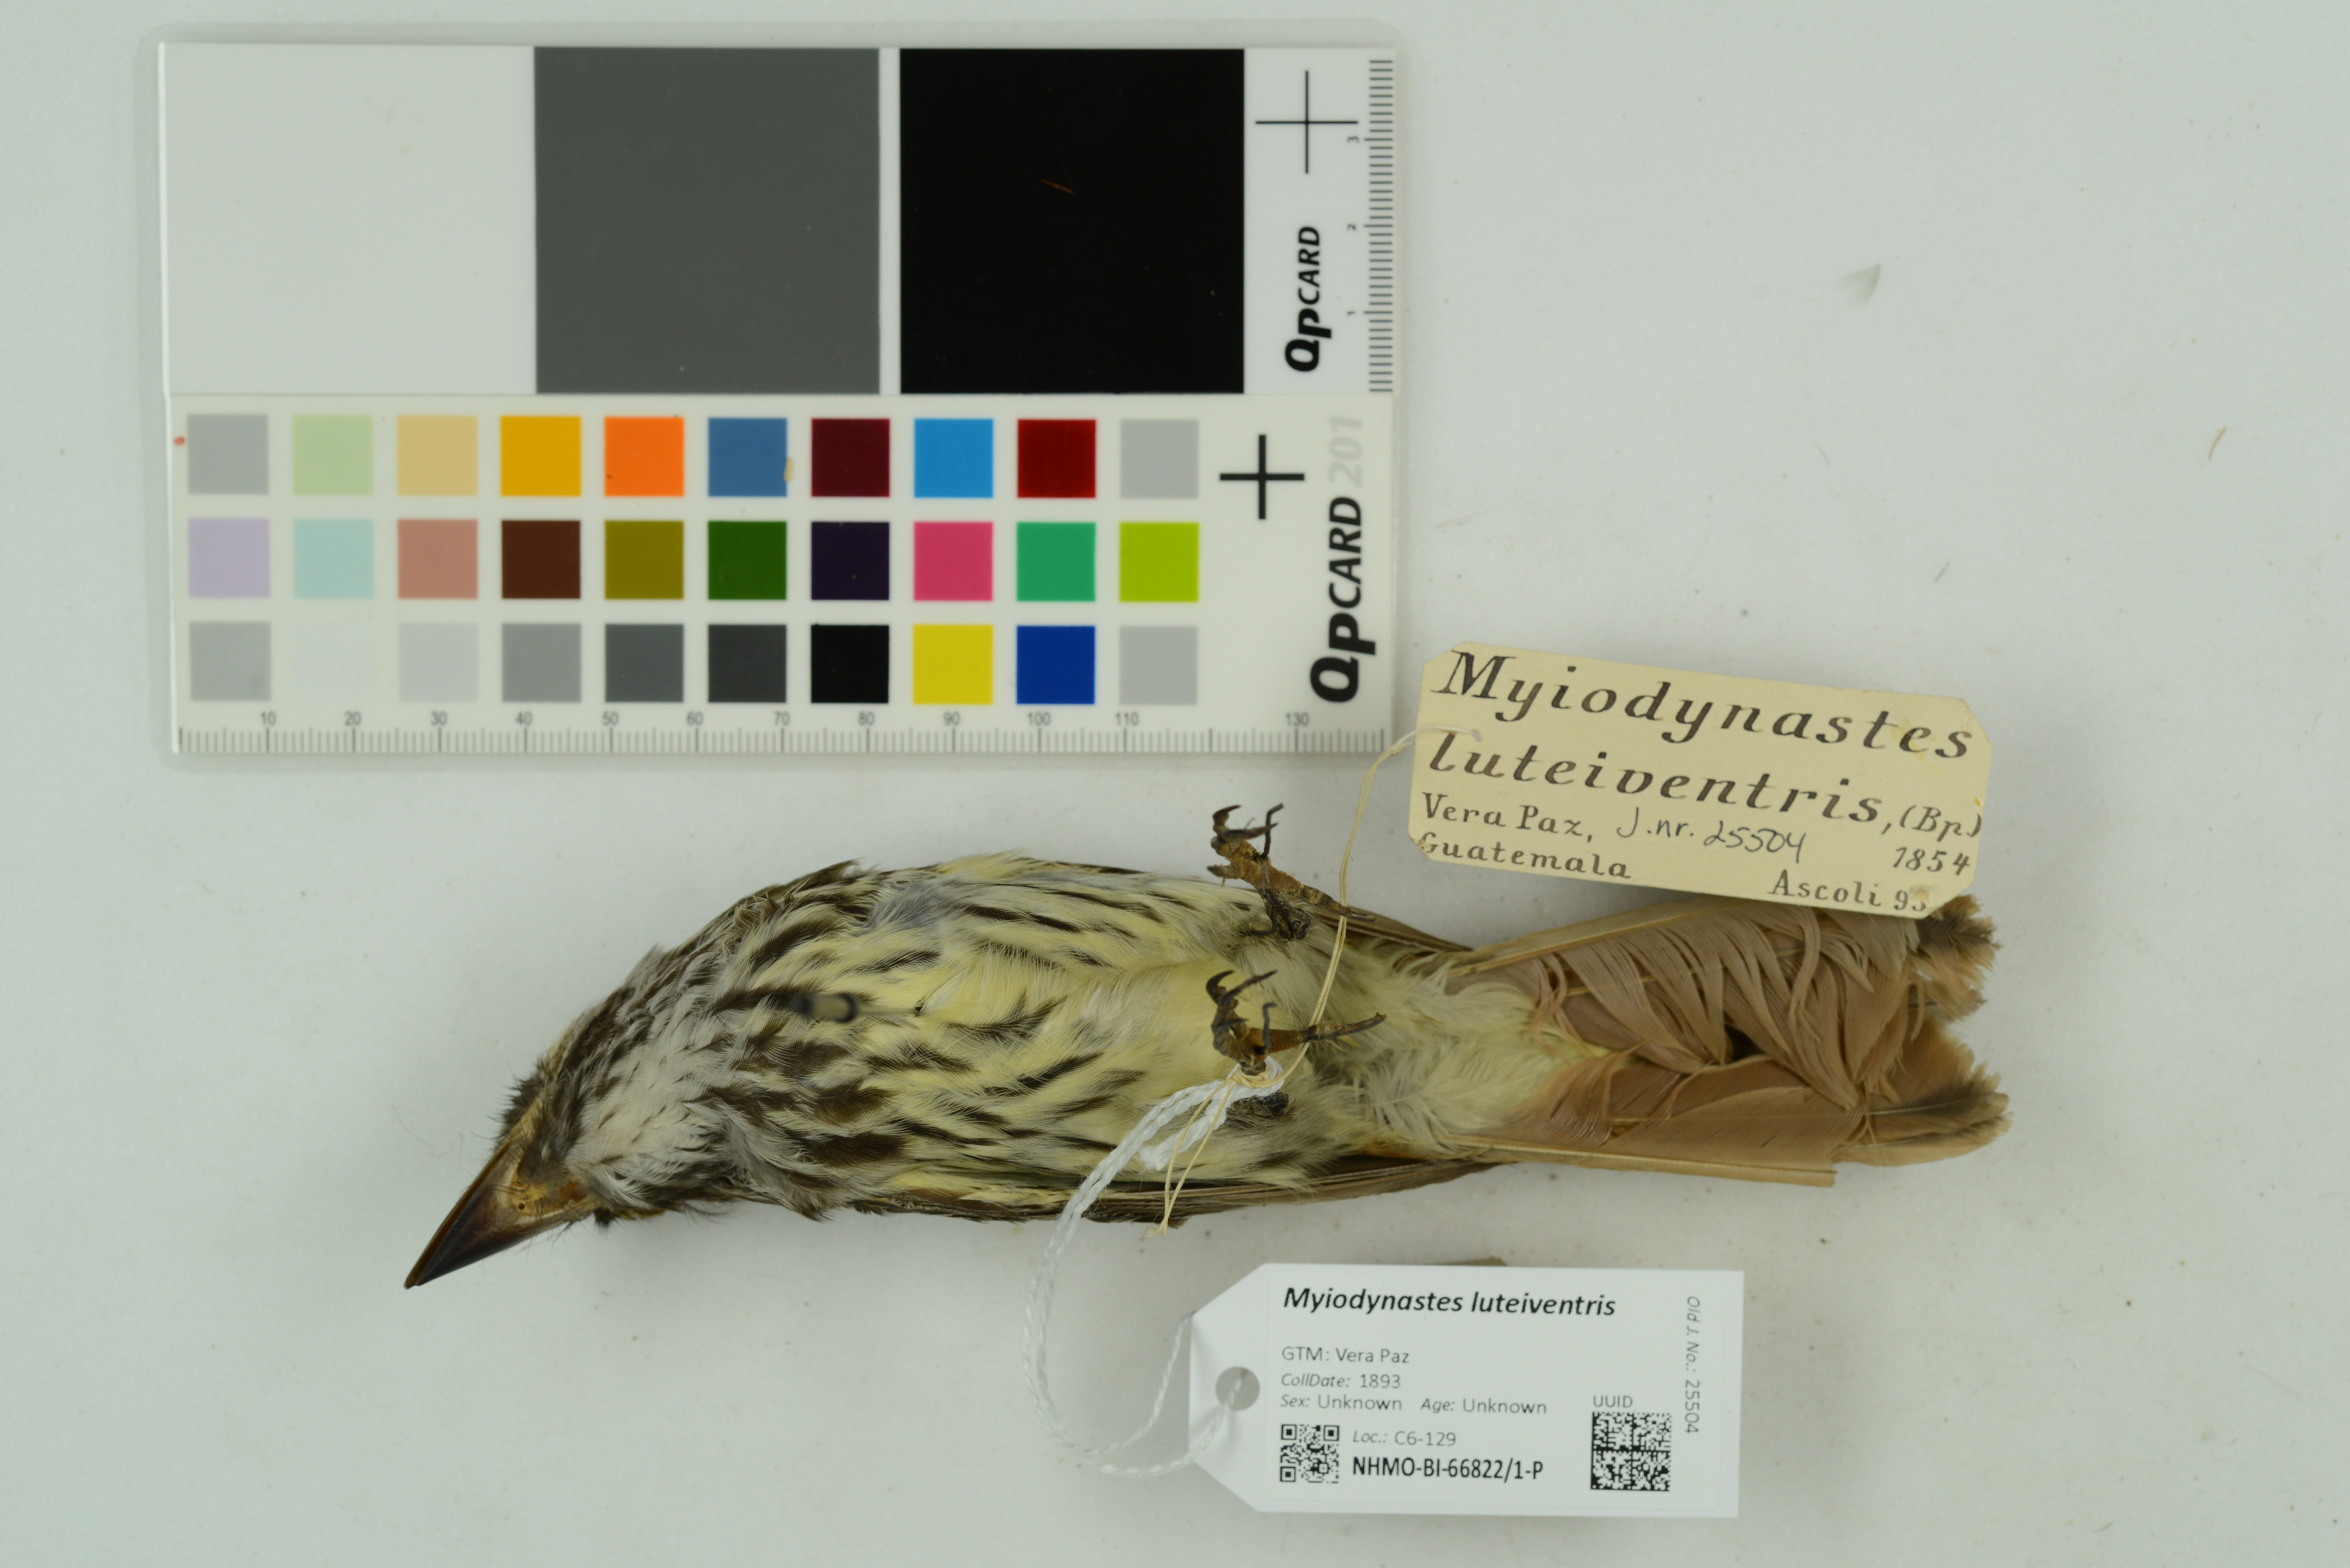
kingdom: Animalia
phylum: Chordata
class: Aves
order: Passeriformes
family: Tyrannidae
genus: Myiodynastes
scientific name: Myiodynastes luteiventris
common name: Sulphur-bellied flycatcher
